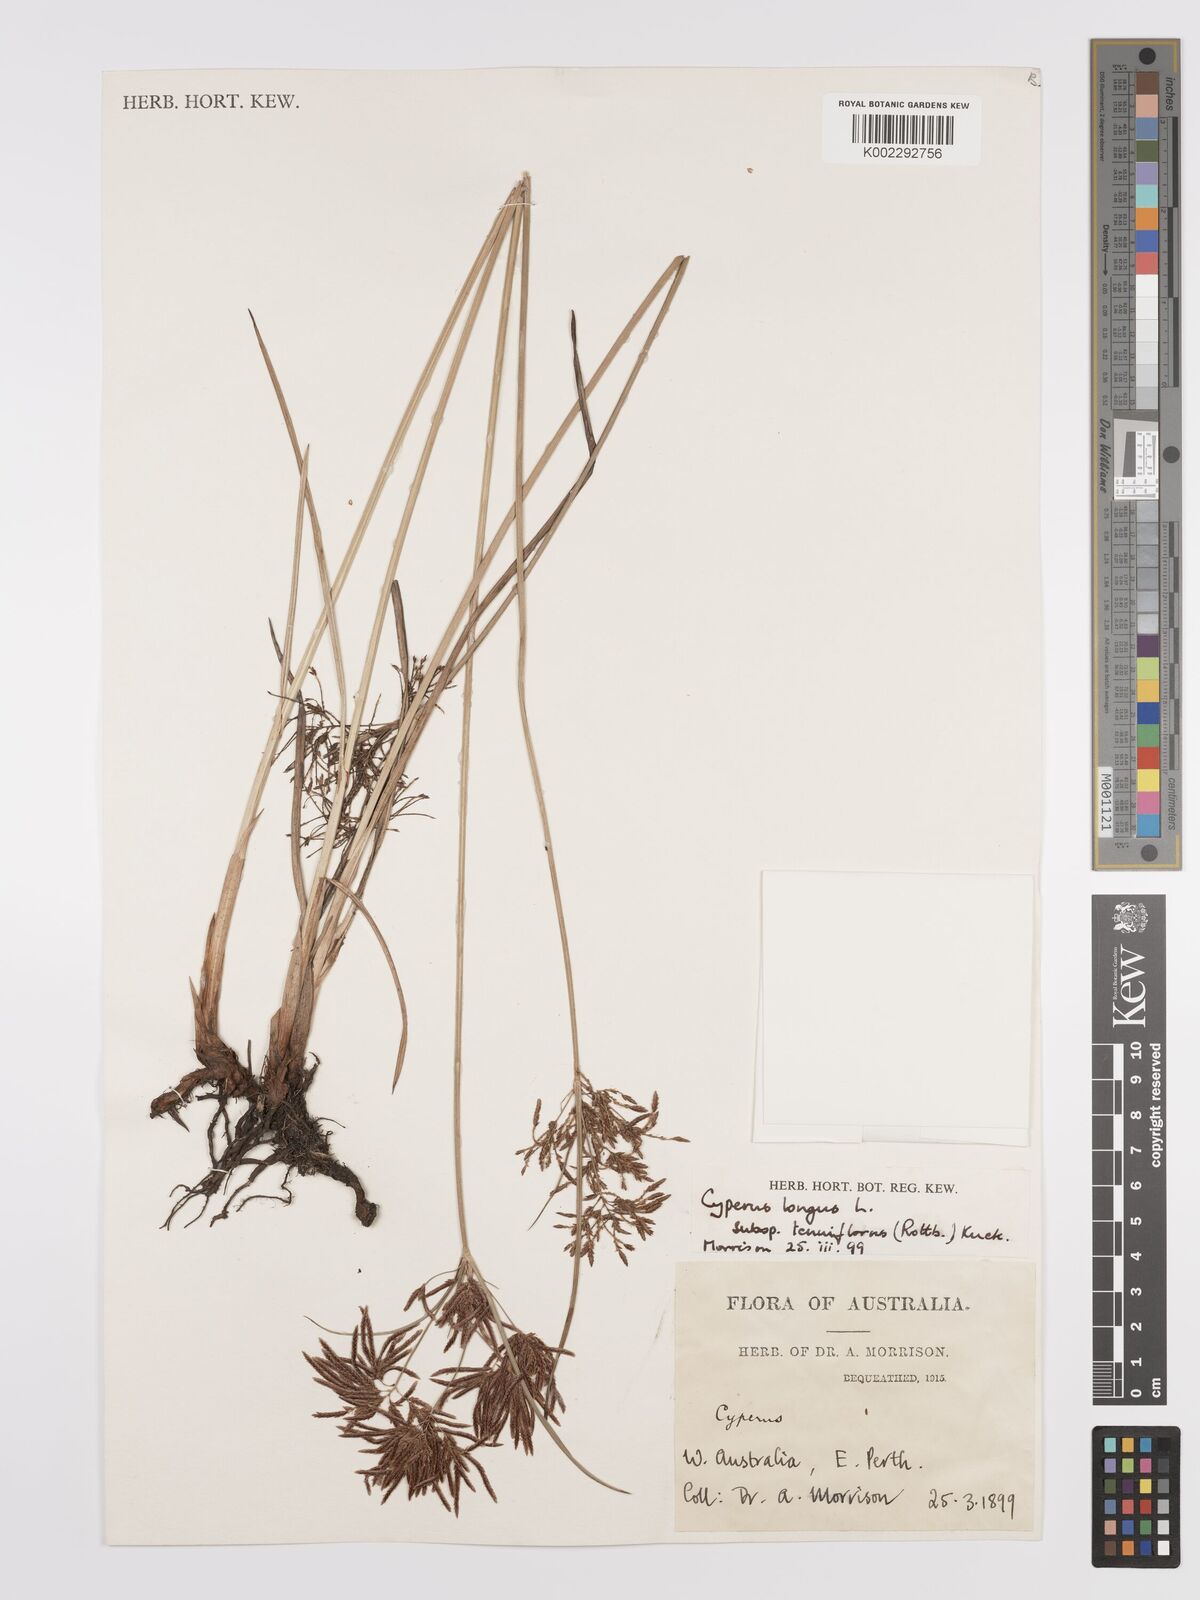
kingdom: Plantae
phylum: Tracheophyta
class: Liliopsida
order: Poales
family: Cyperaceae
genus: Cyperus
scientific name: Cyperus longus
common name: Galingale
